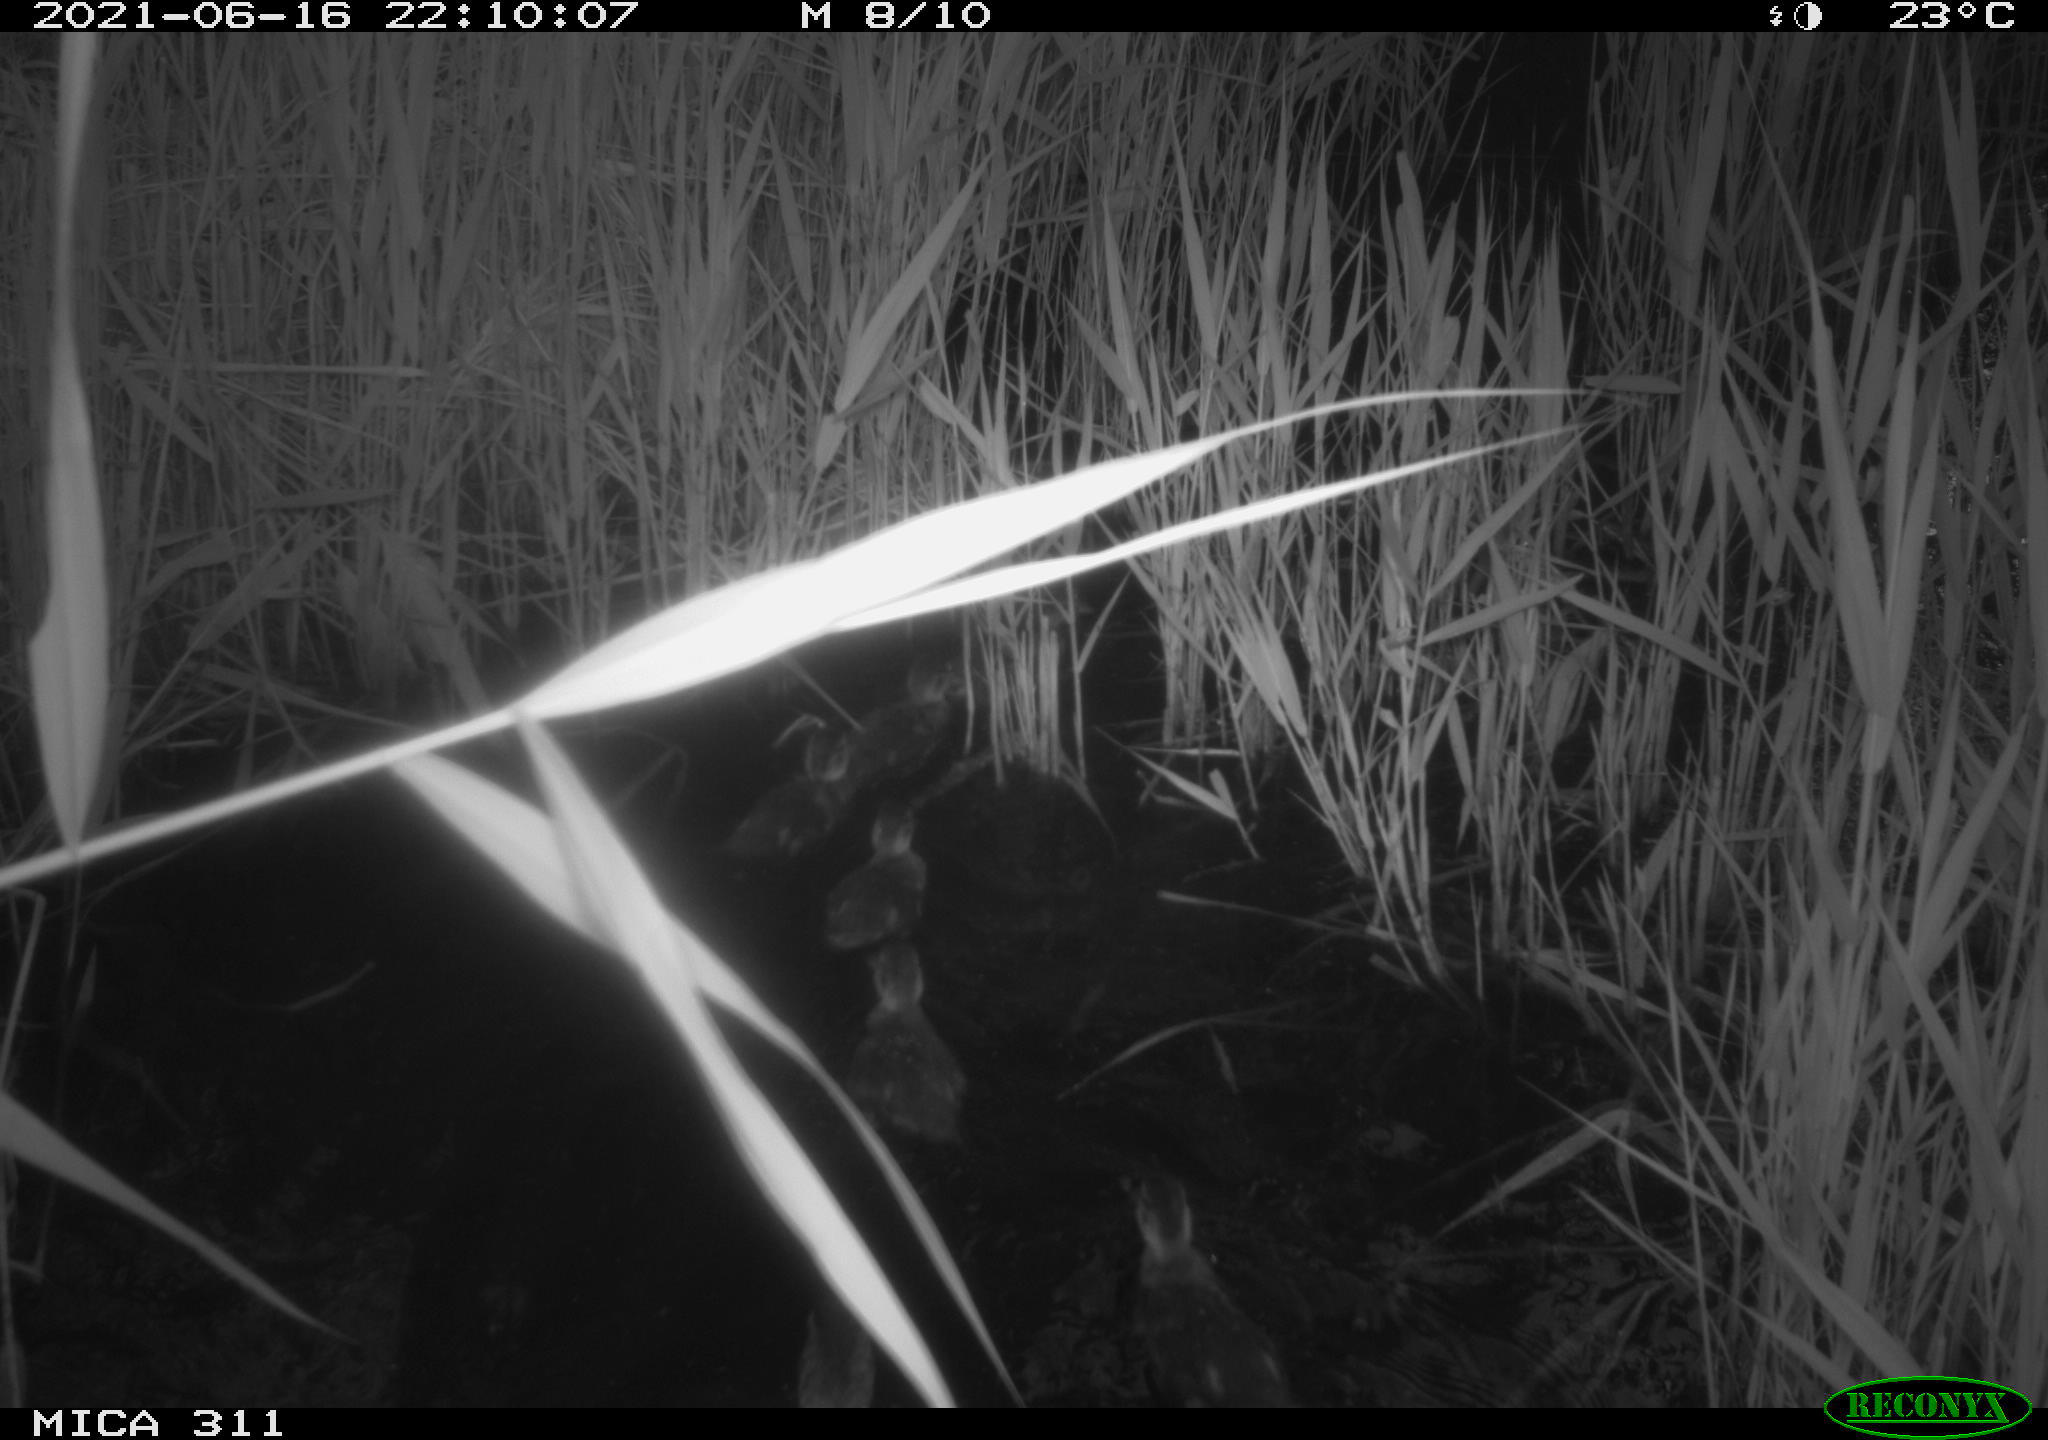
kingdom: Animalia
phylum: Chordata
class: Aves
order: Anseriformes
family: Anatidae
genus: Anas
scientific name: Anas
